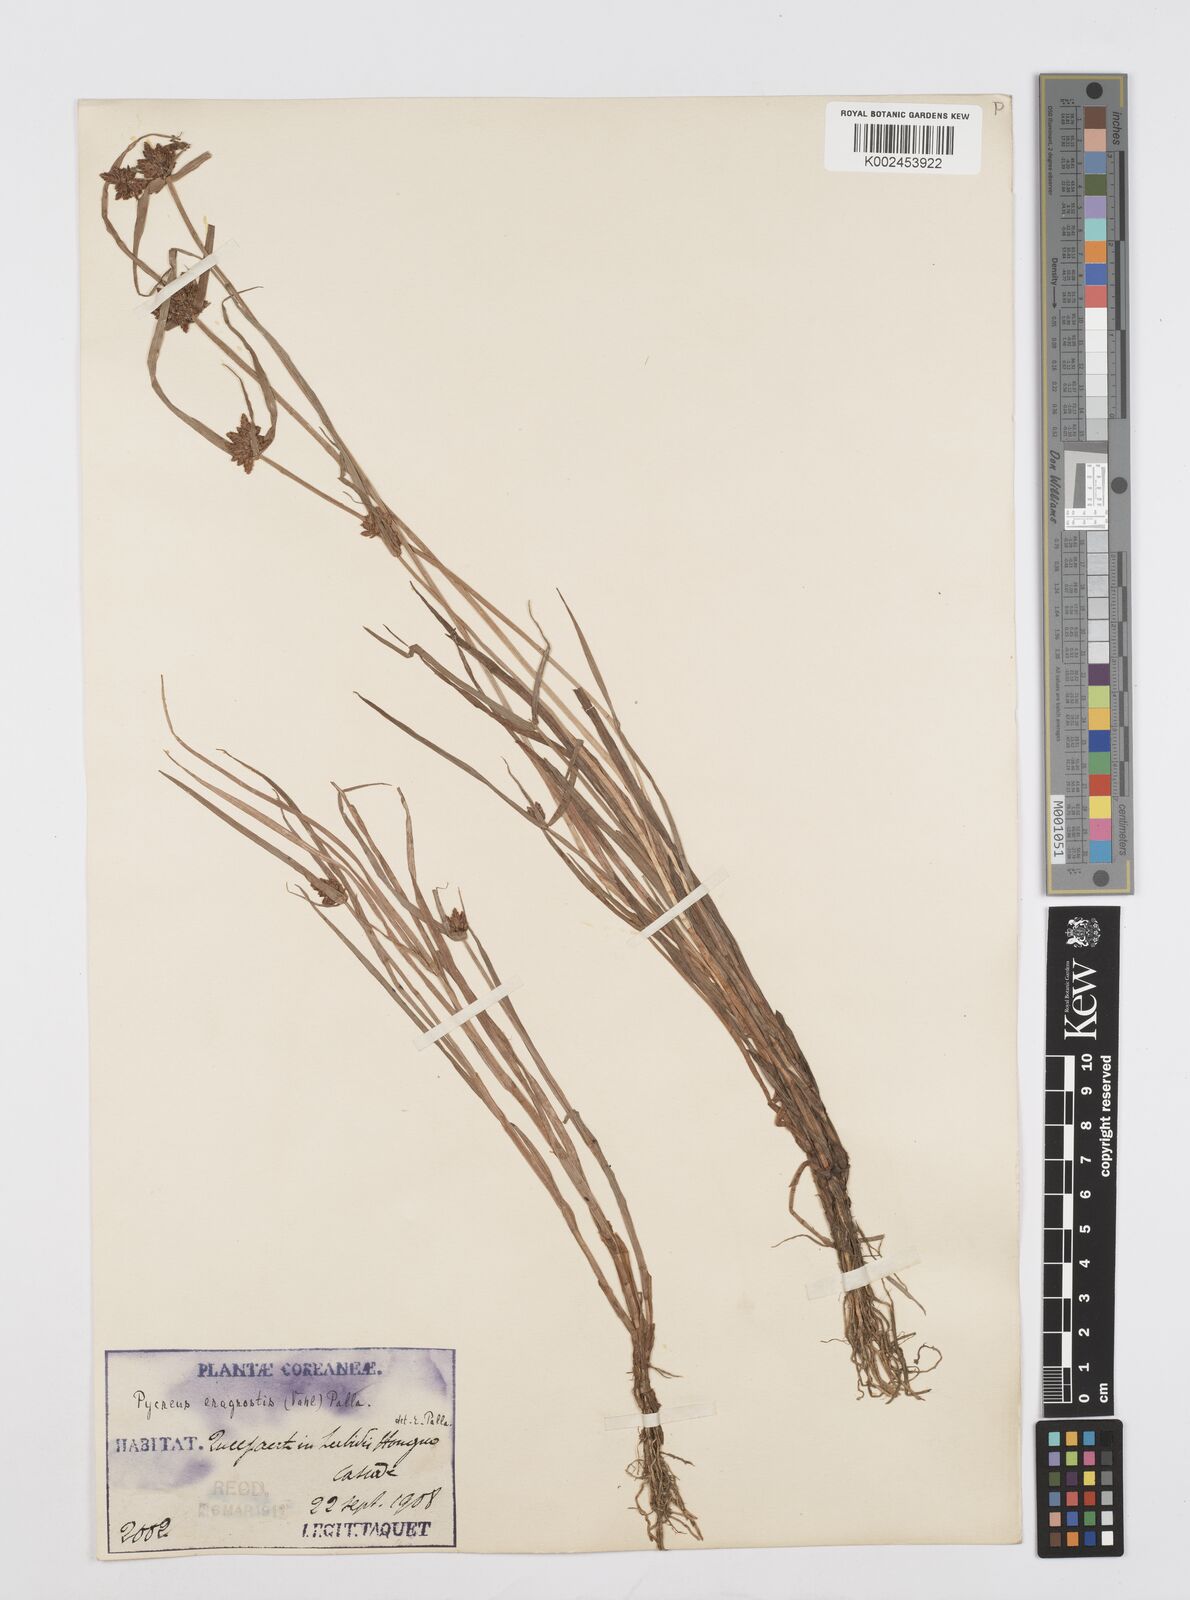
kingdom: Plantae
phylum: Tracheophyta
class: Liliopsida
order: Poales
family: Cyperaceae
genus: Cyperus
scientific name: Cyperus sanguinolentus
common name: Purpleglume flatsedge
